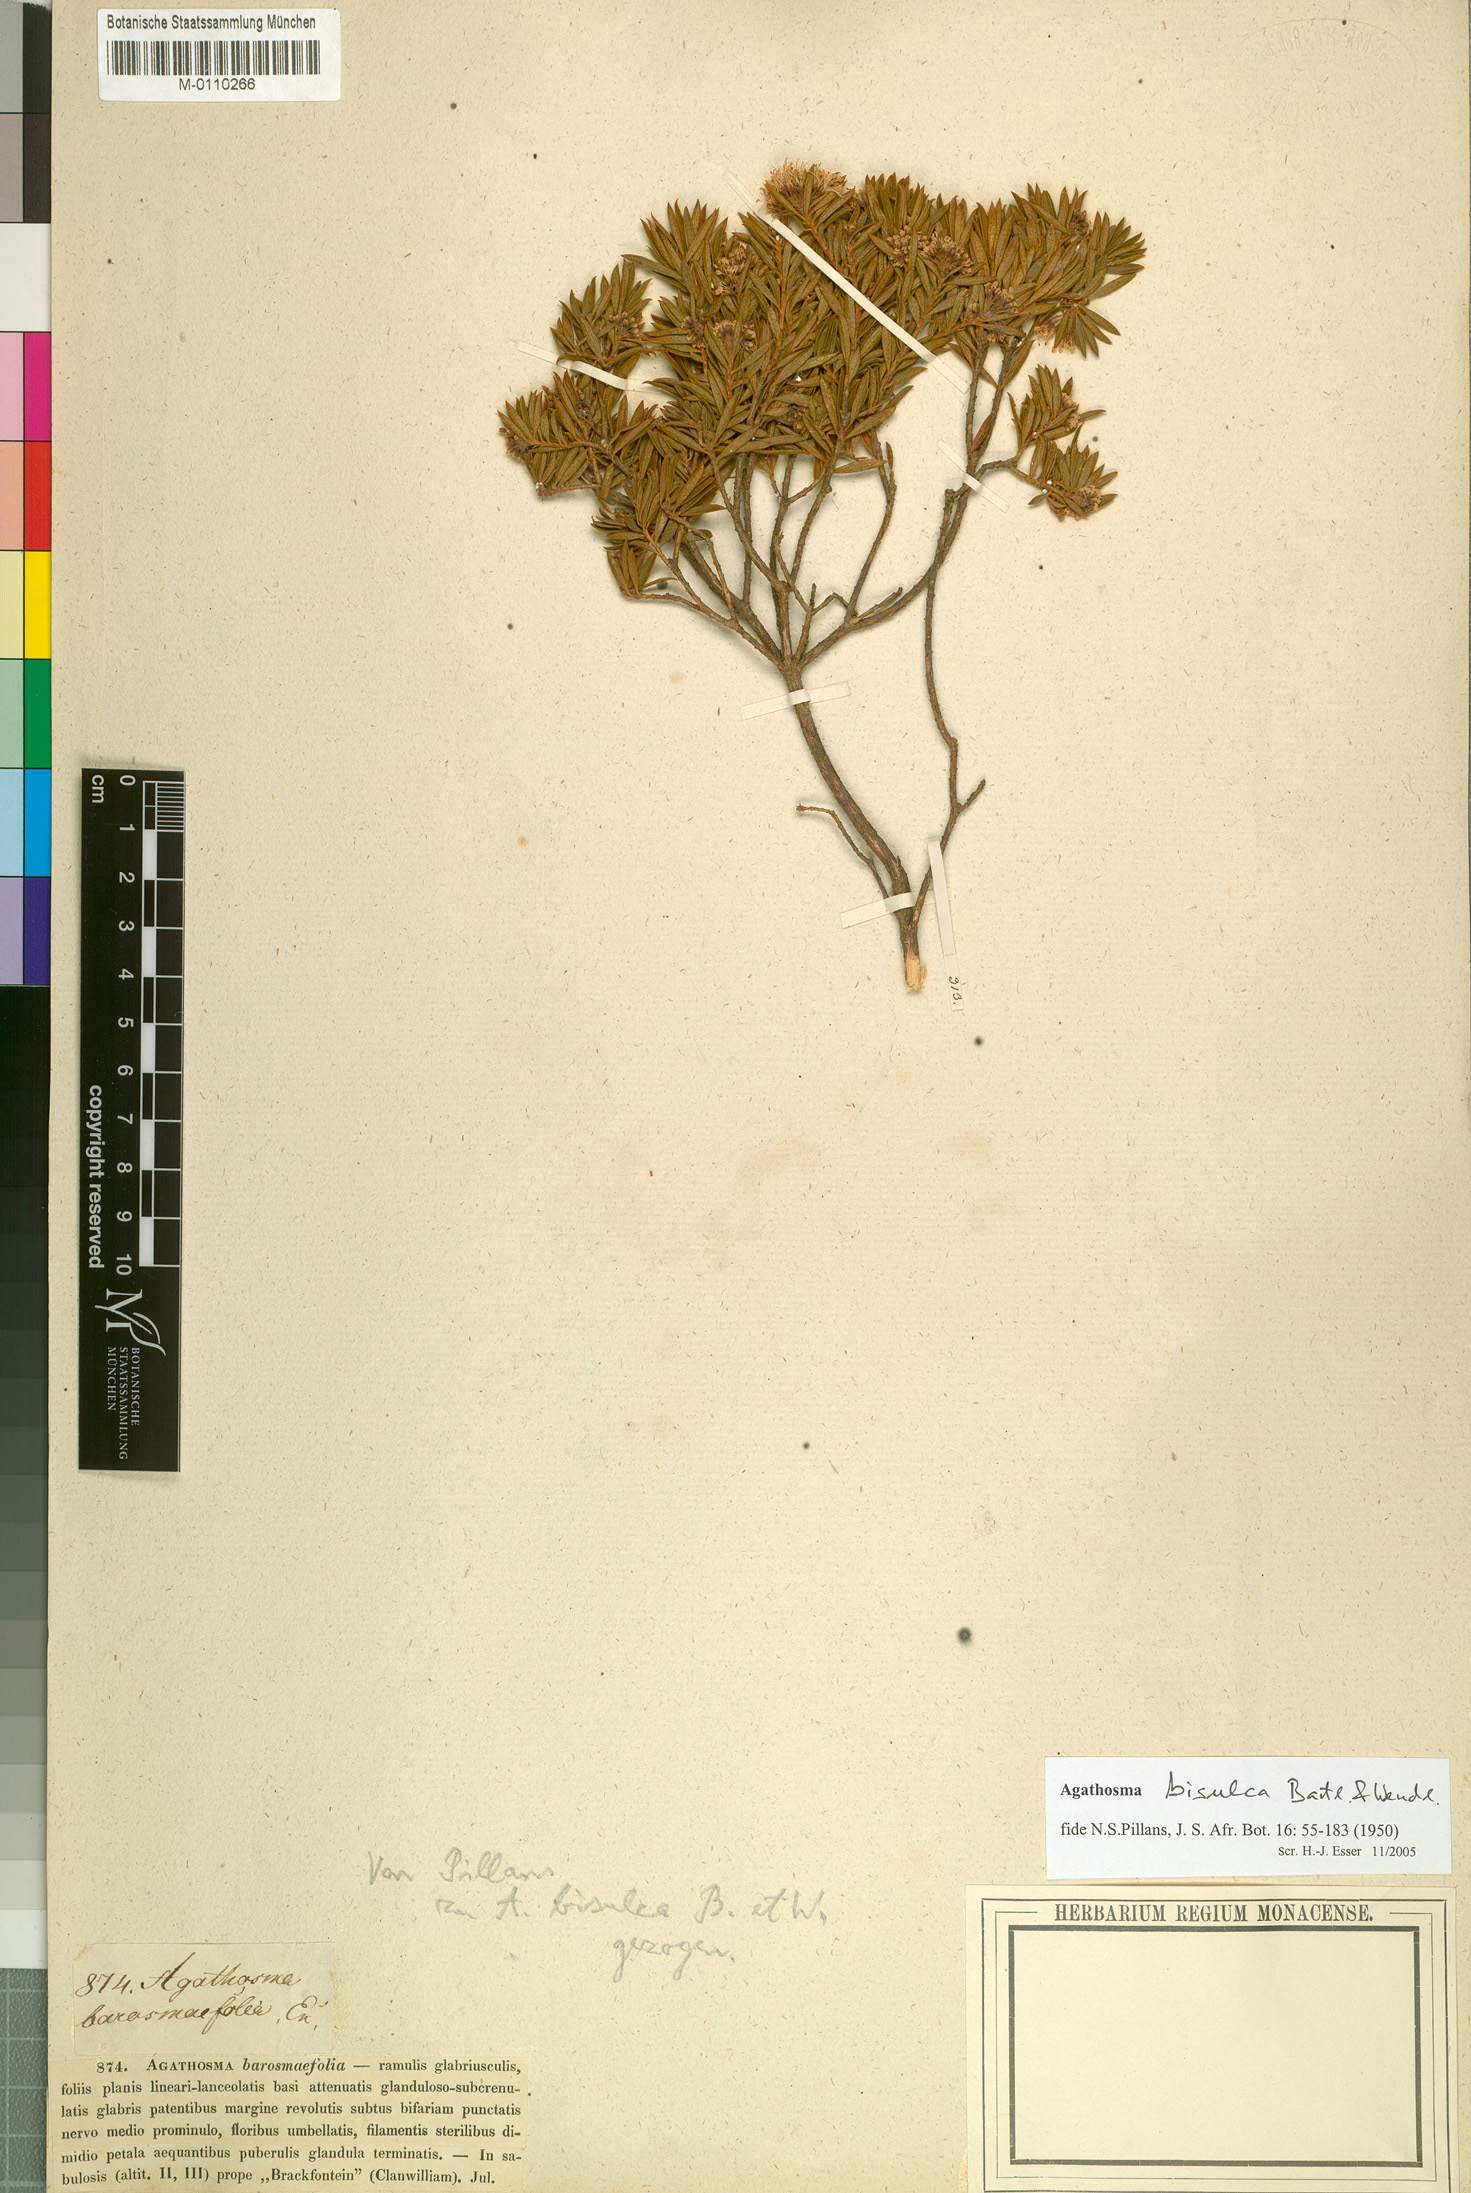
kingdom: Plantae
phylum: Tracheophyta
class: Magnoliopsida
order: Sapindales
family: Rutaceae
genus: Agathosma
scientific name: Agathosma bisulca
